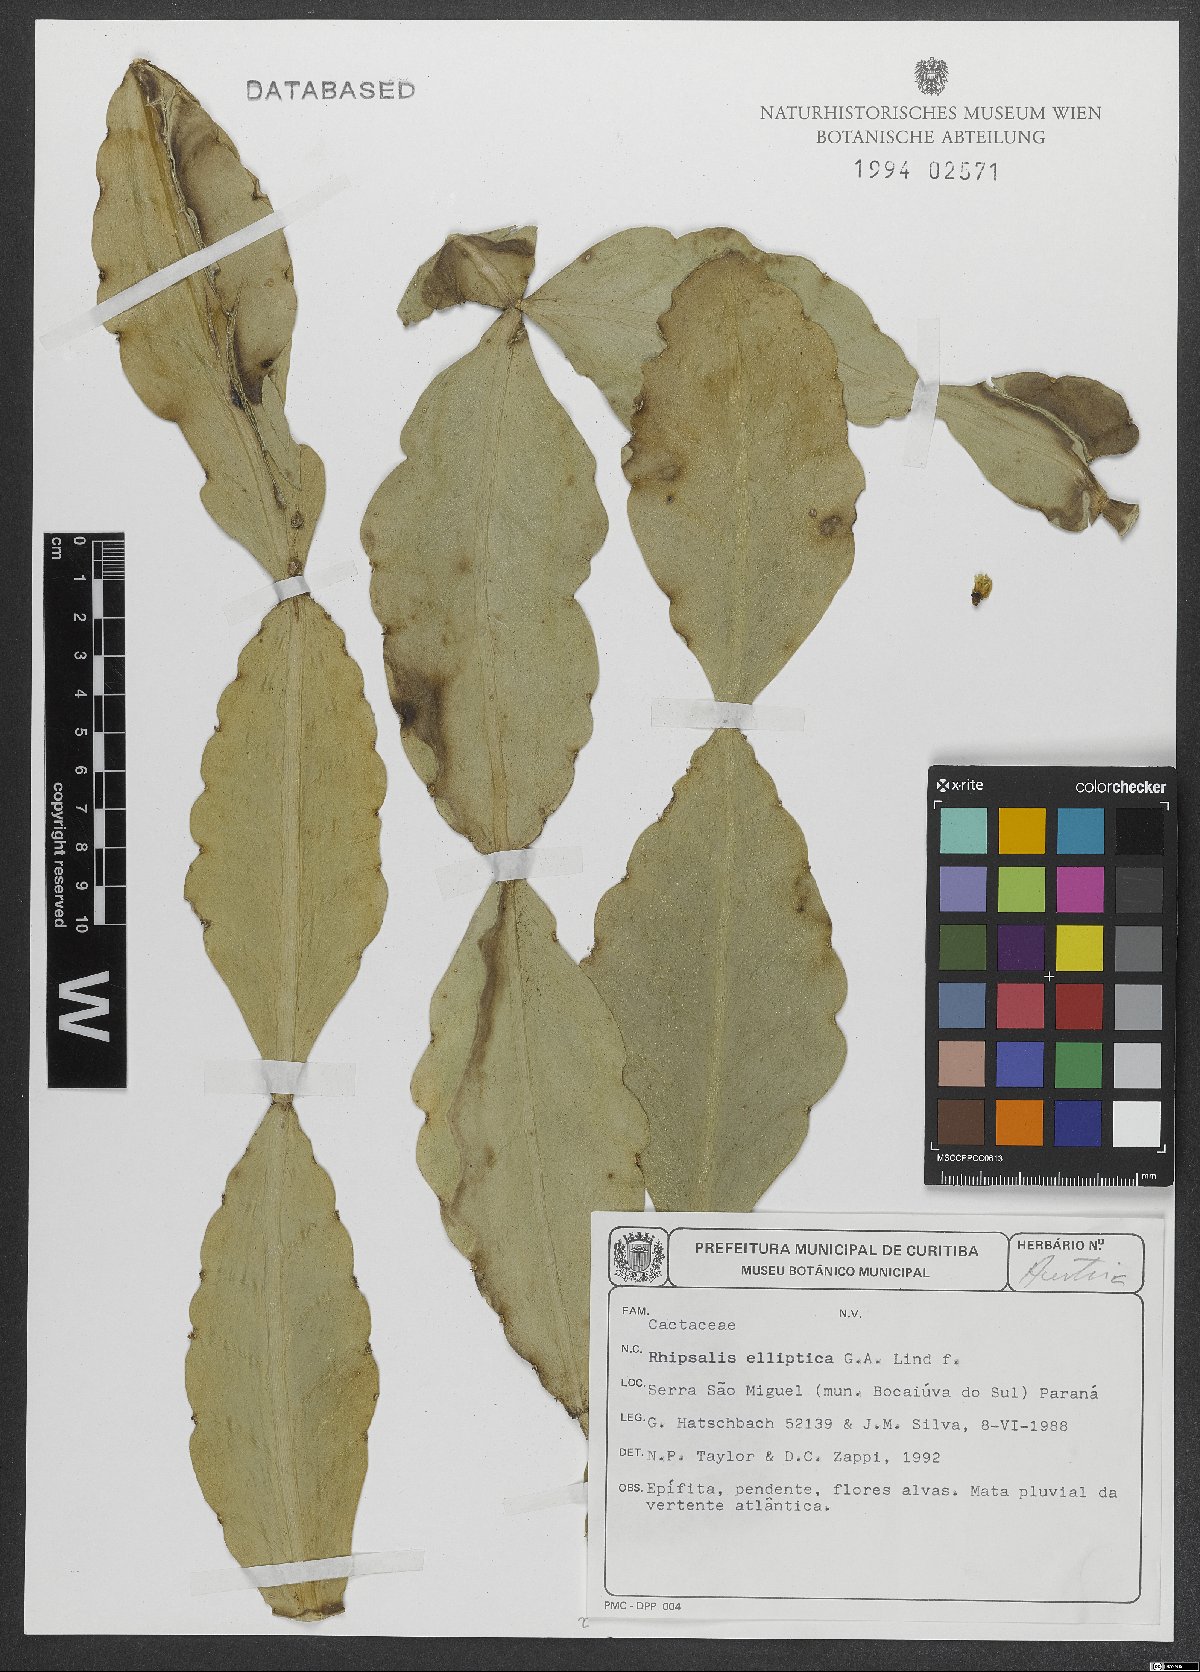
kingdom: Plantae
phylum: Tracheophyta
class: Magnoliopsida
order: Caryophyllales
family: Cactaceae
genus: Rhipsalis
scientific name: Rhipsalis elliptica
